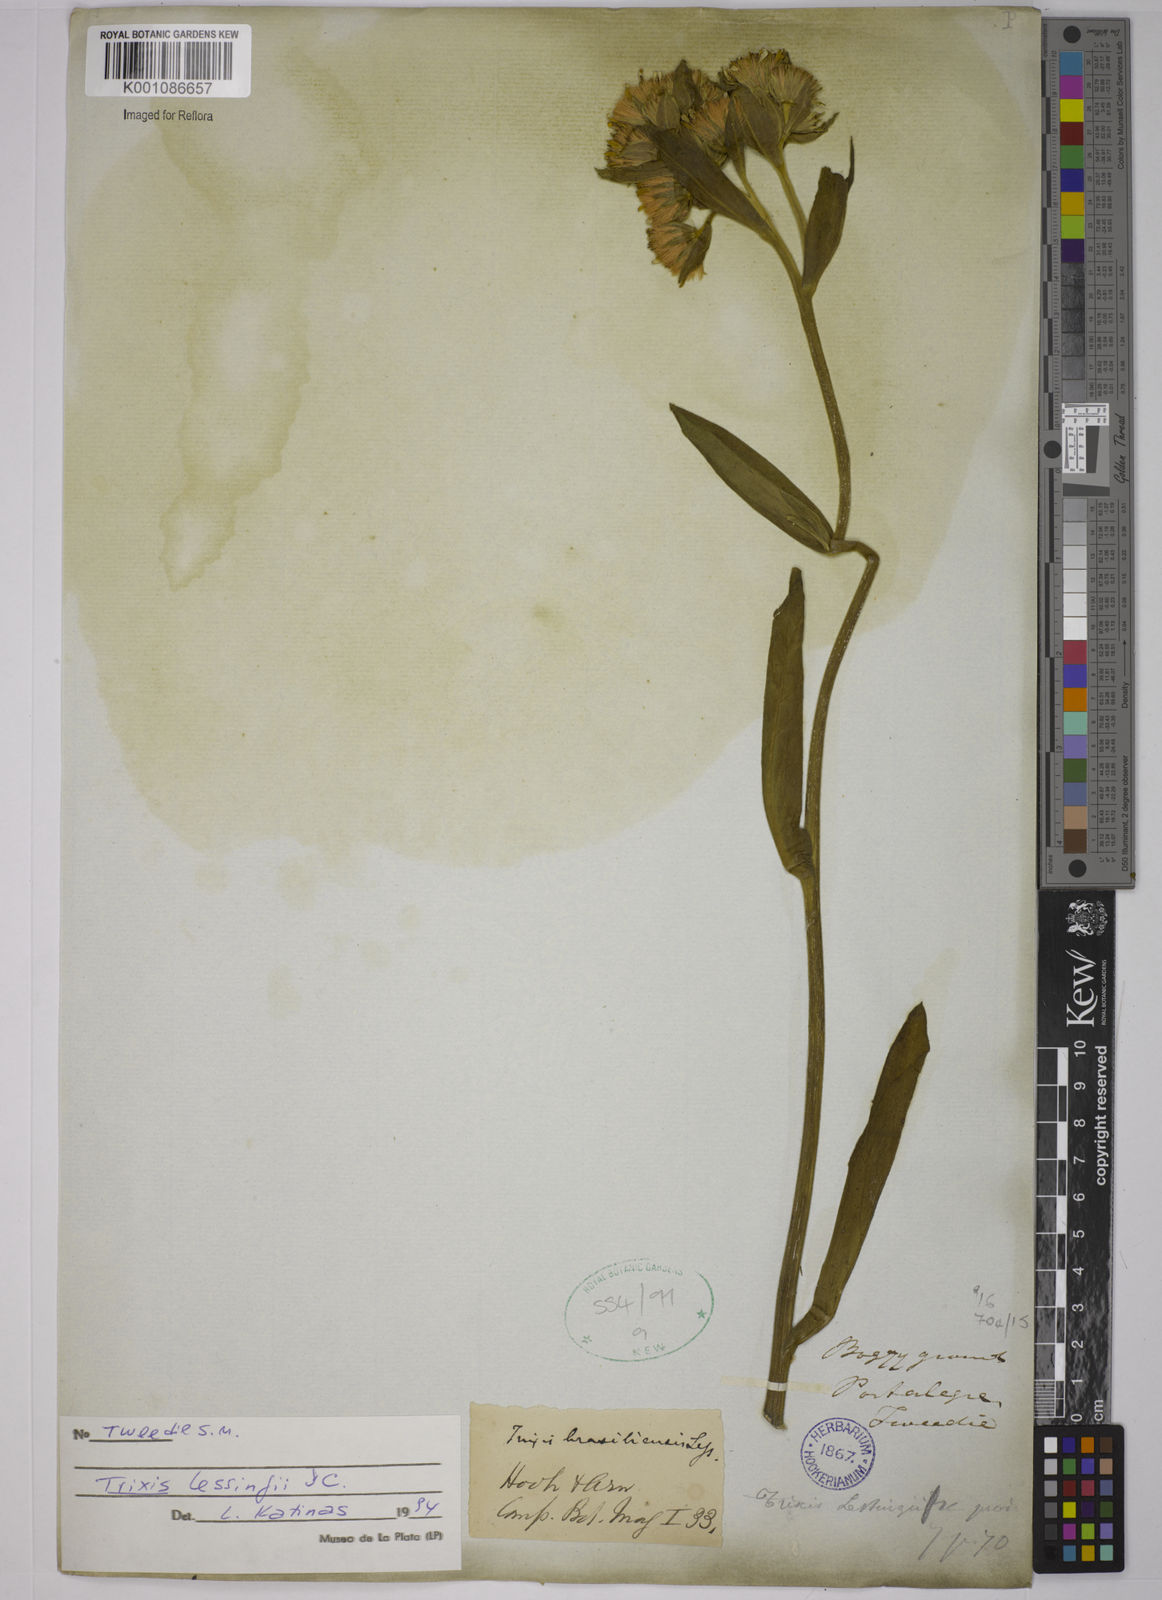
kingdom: Plantae
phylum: Tracheophyta
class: Magnoliopsida
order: Asterales
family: Asteraceae
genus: Trixis
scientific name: Trixis lessingii
